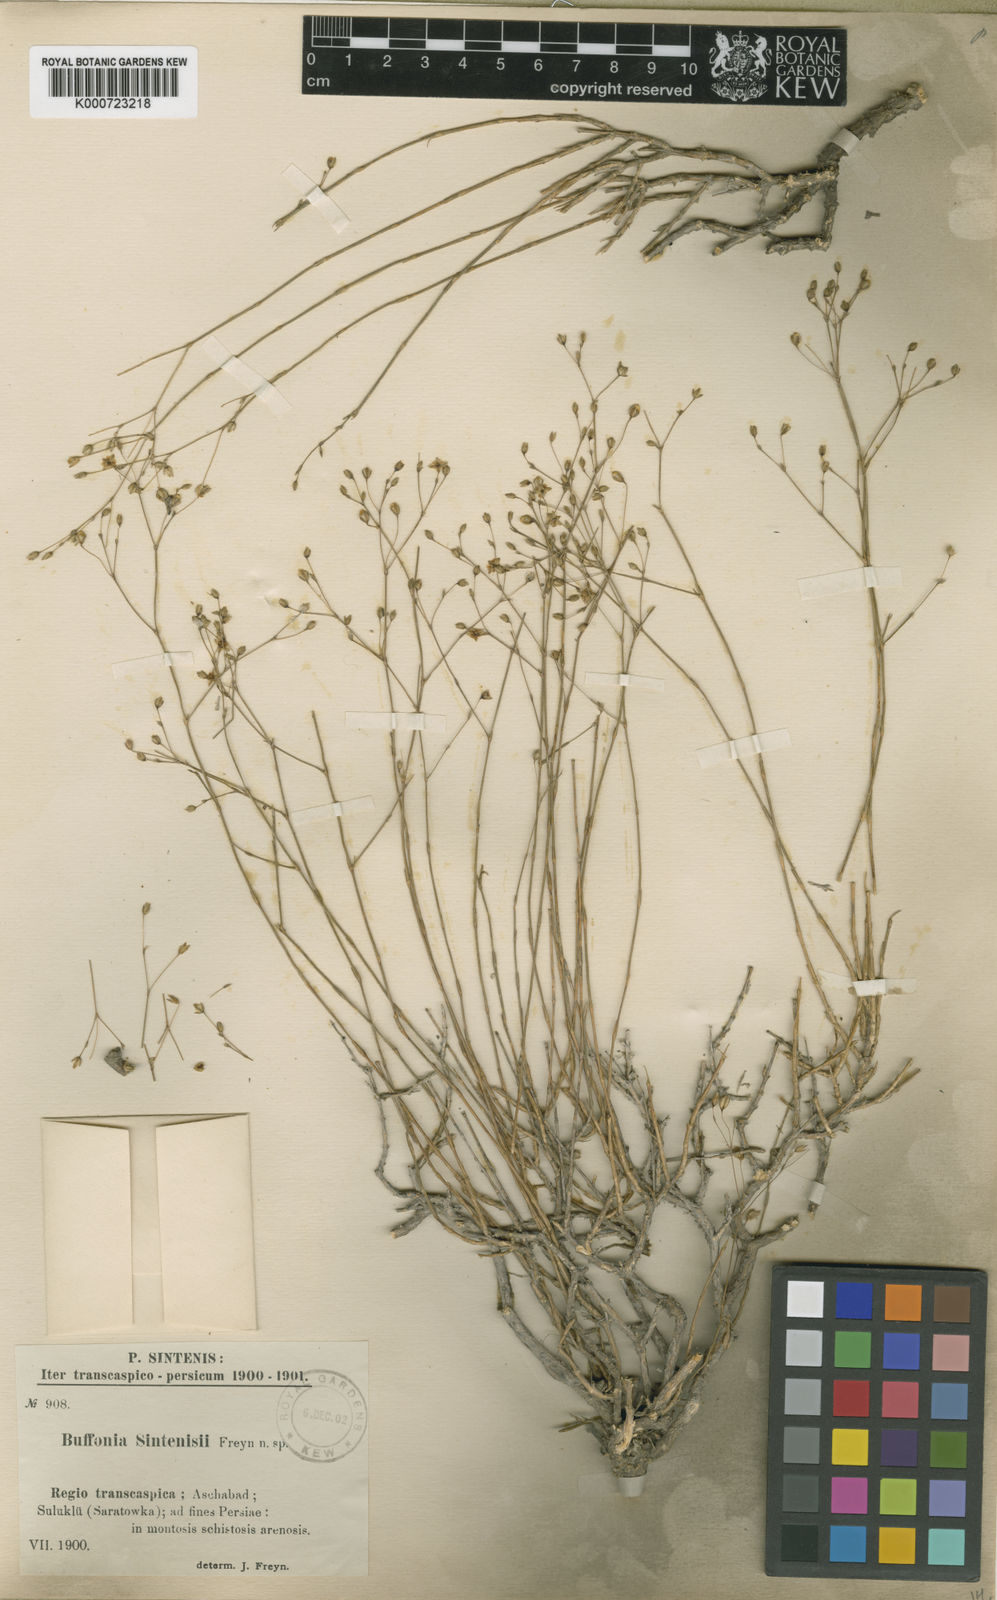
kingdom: Plantae
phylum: Tracheophyta
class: Magnoliopsida
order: Caryophyllales
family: Caryophyllaceae
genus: Bufonia
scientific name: Bufonia sintenisii
